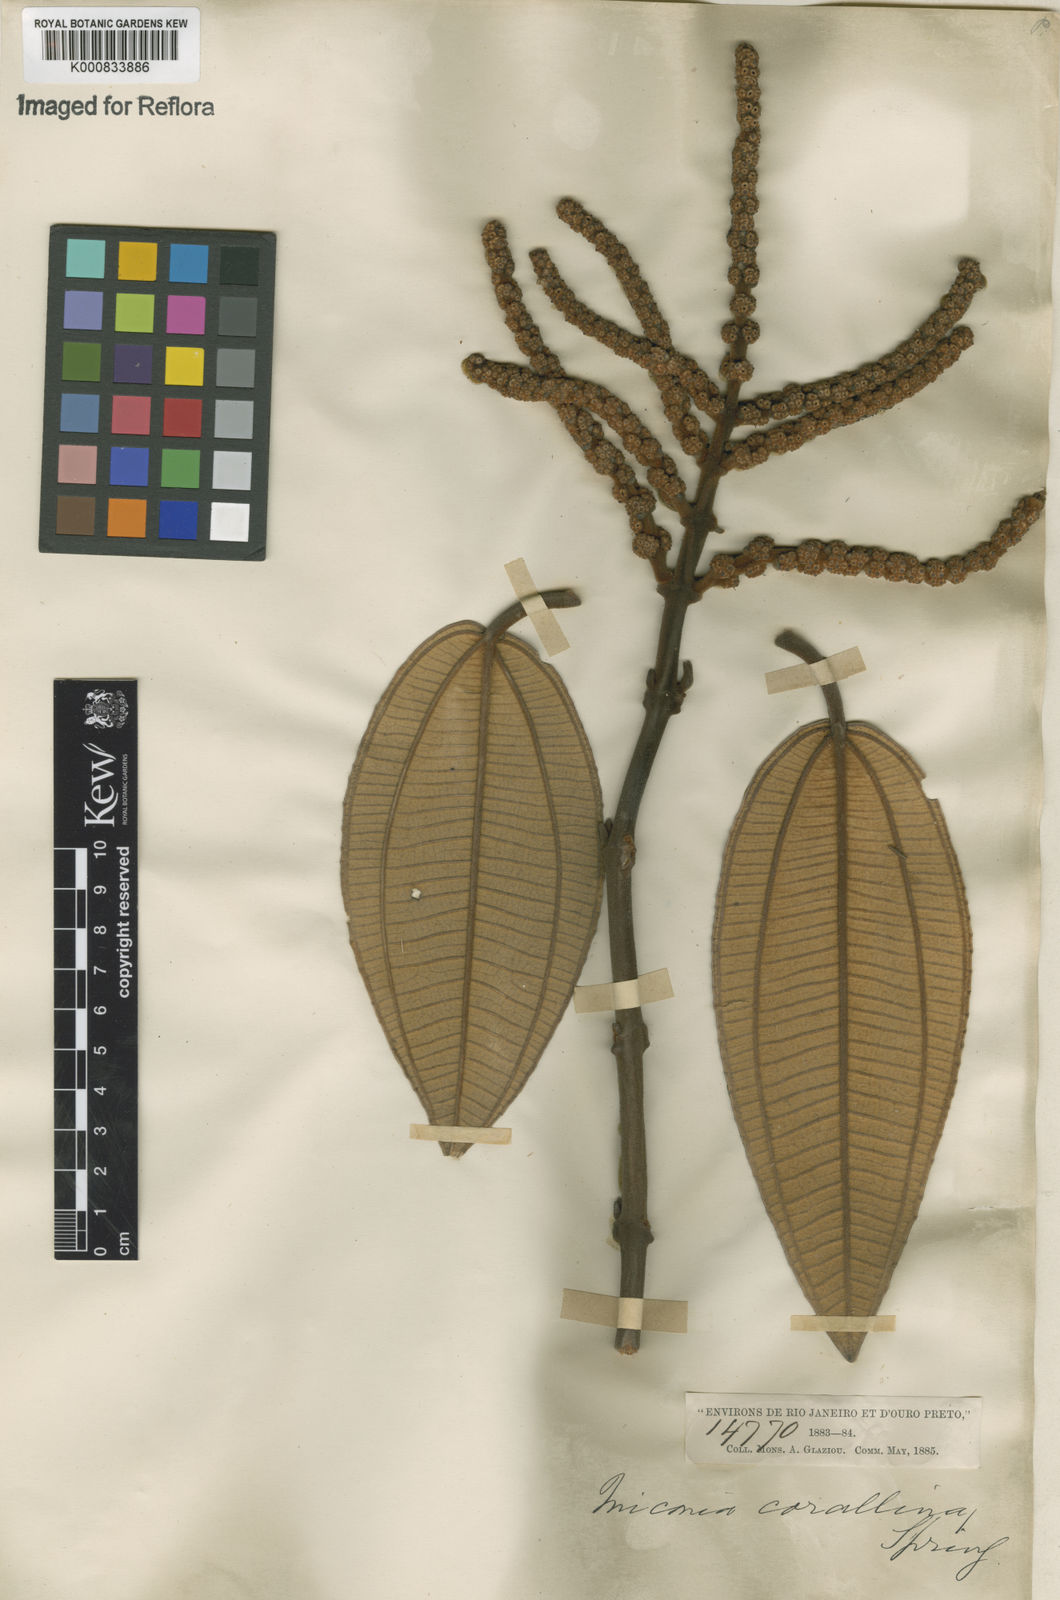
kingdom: Plantae
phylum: Tracheophyta
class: Magnoliopsida
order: Myrtales
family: Melastomataceae
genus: Miconia
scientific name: Miconia
